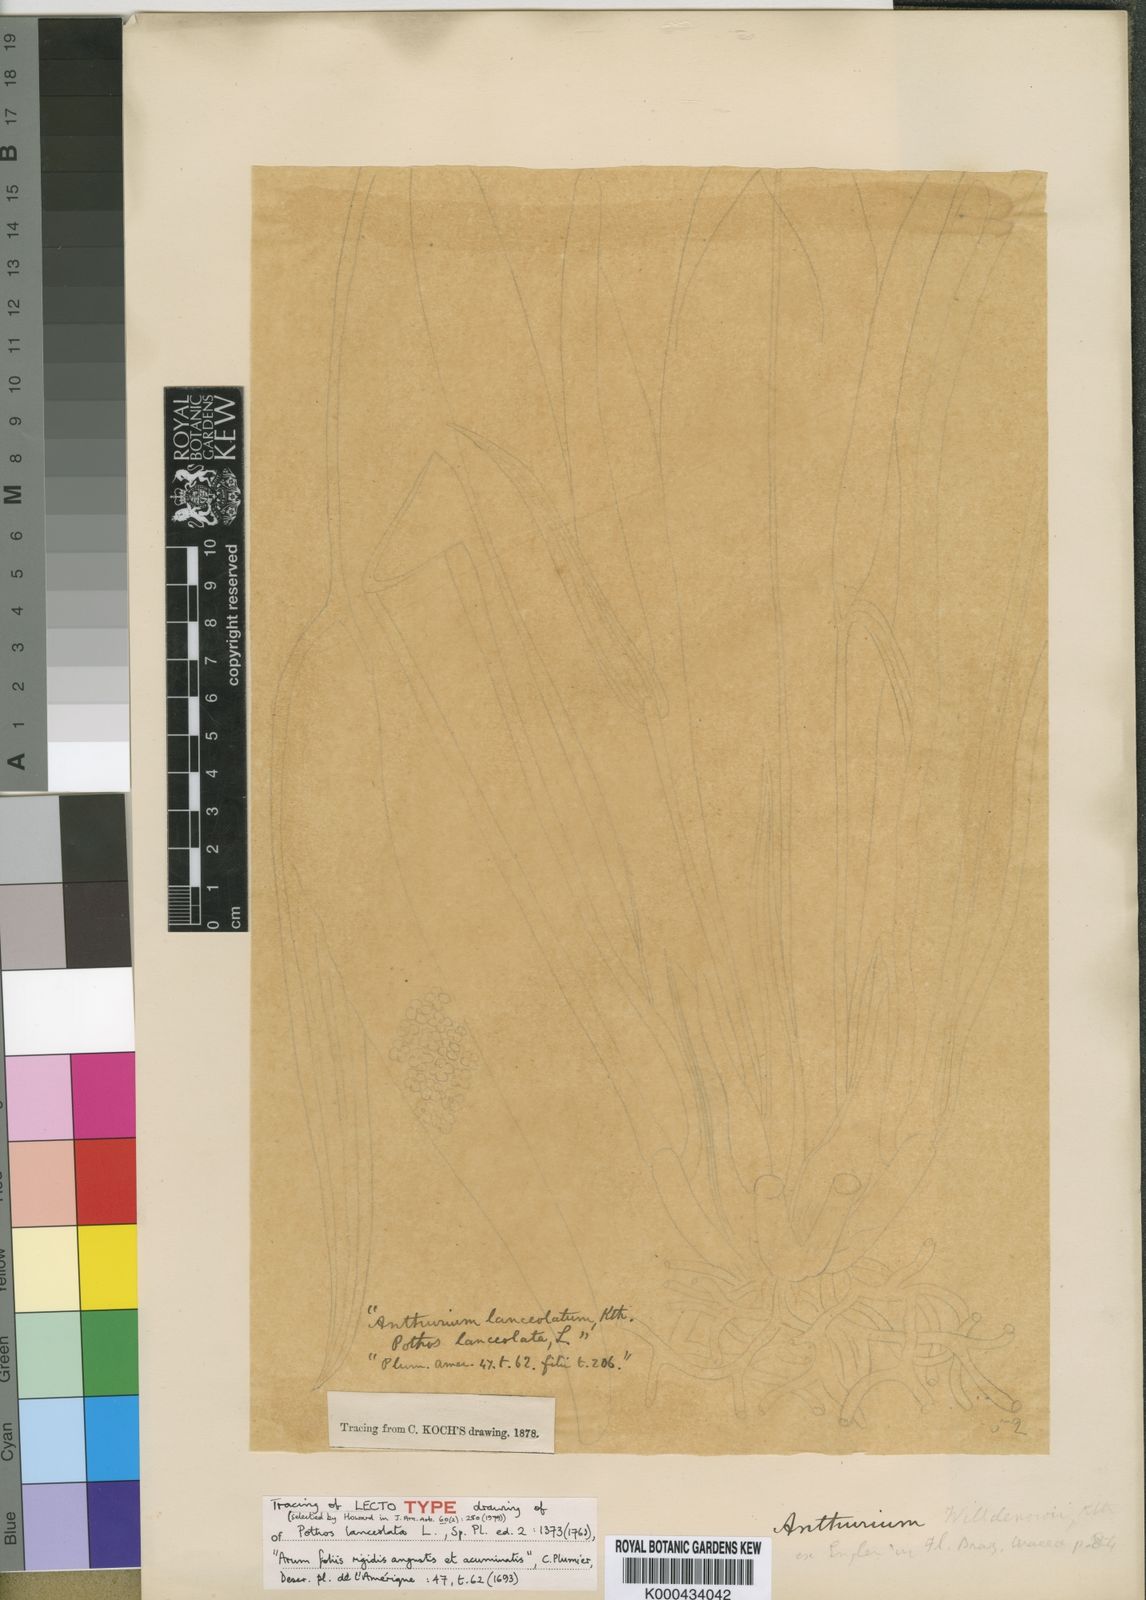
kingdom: Plantae
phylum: Tracheophyta
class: Liliopsida
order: Alismatales
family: Araceae
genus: Anthurium
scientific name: Anthurium acaule
